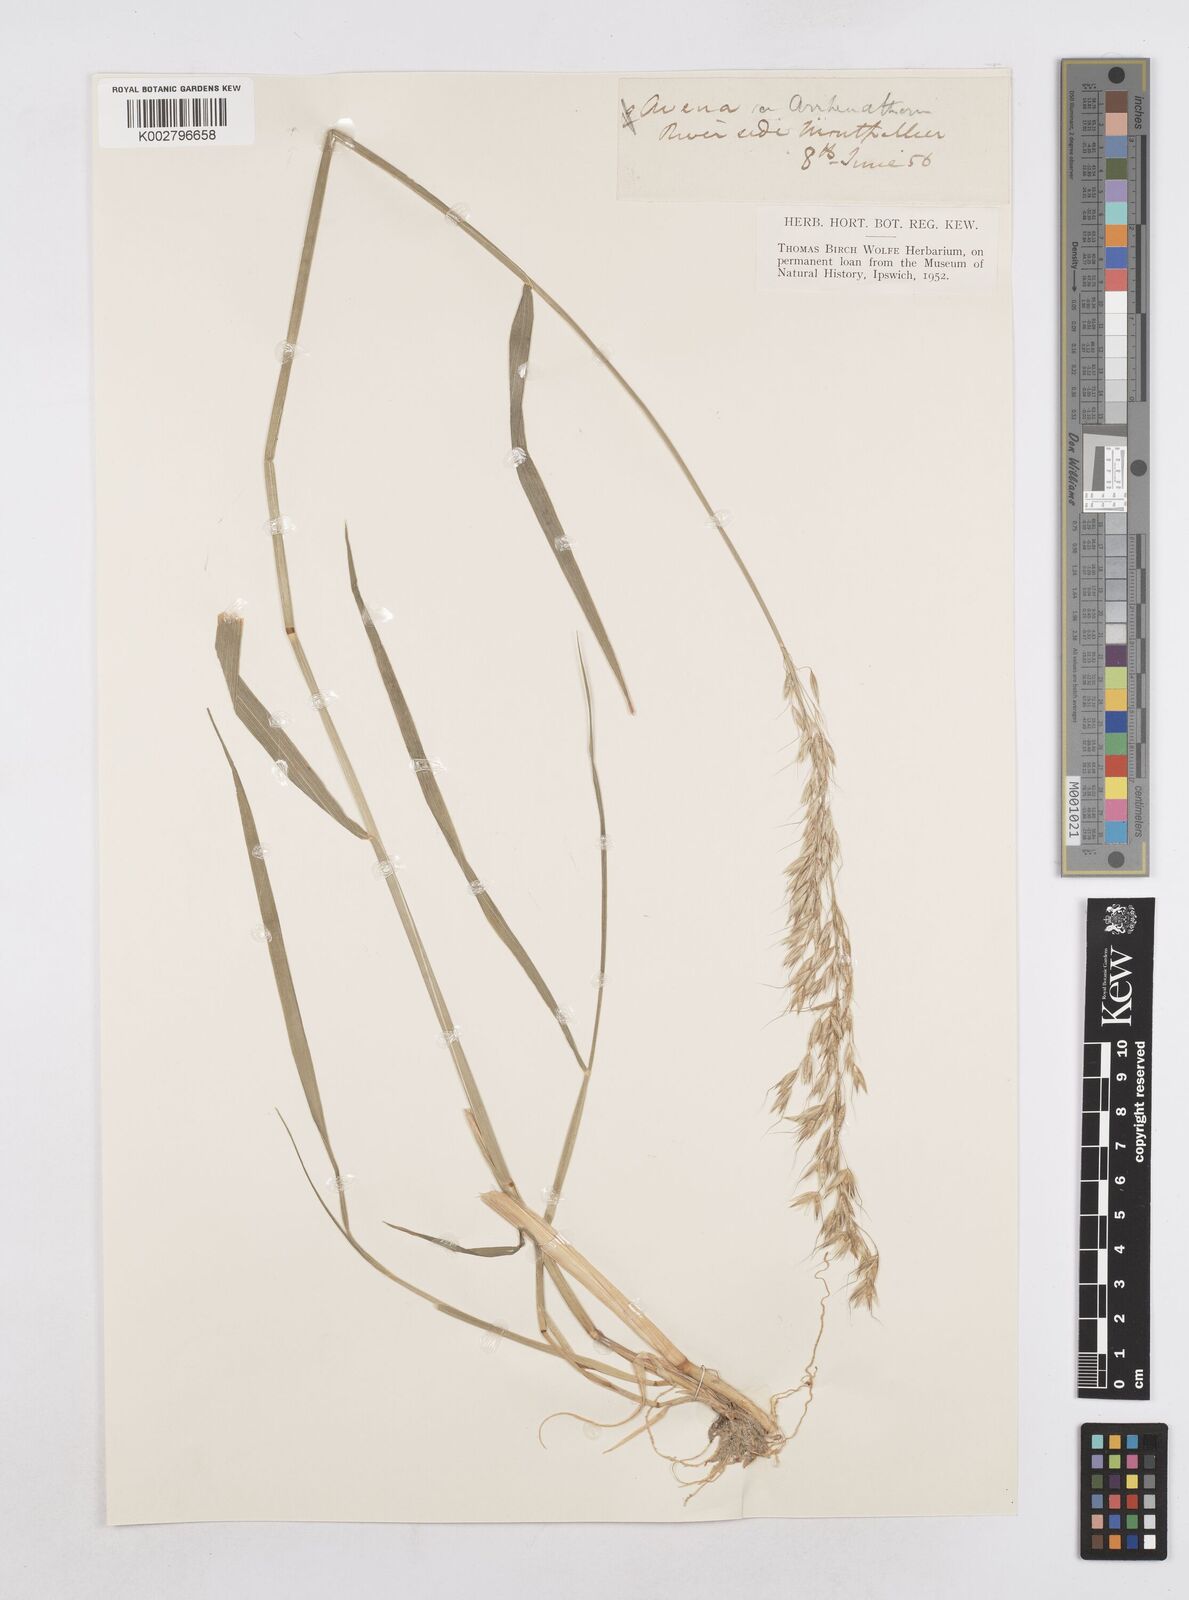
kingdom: Plantae
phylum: Tracheophyta
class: Liliopsida
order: Poales
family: Poaceae
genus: Arrhenatherum
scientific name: Arrhenatherum elatius
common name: Tall oatgrass
